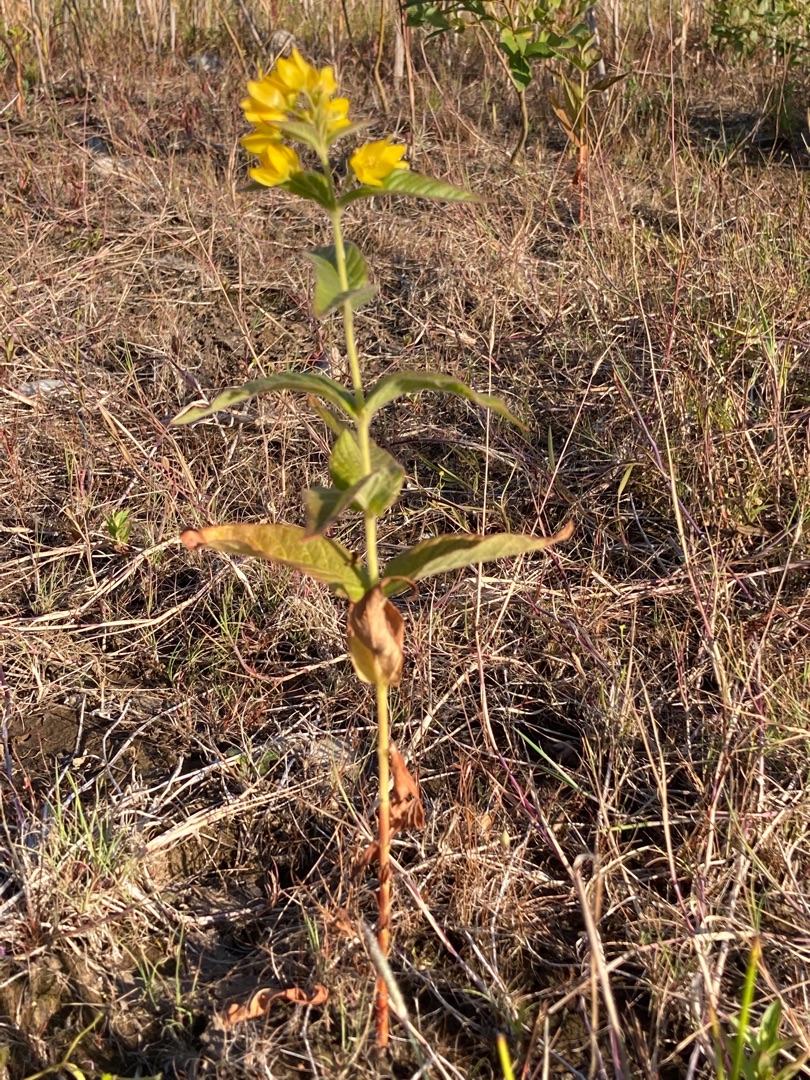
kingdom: Plantae
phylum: Tracheophyta
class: Magnoliopsida
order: Ericales
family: Primulaceae
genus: Lysimachia
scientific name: Lysimachia vulgaris
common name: Almindelig fredløs
